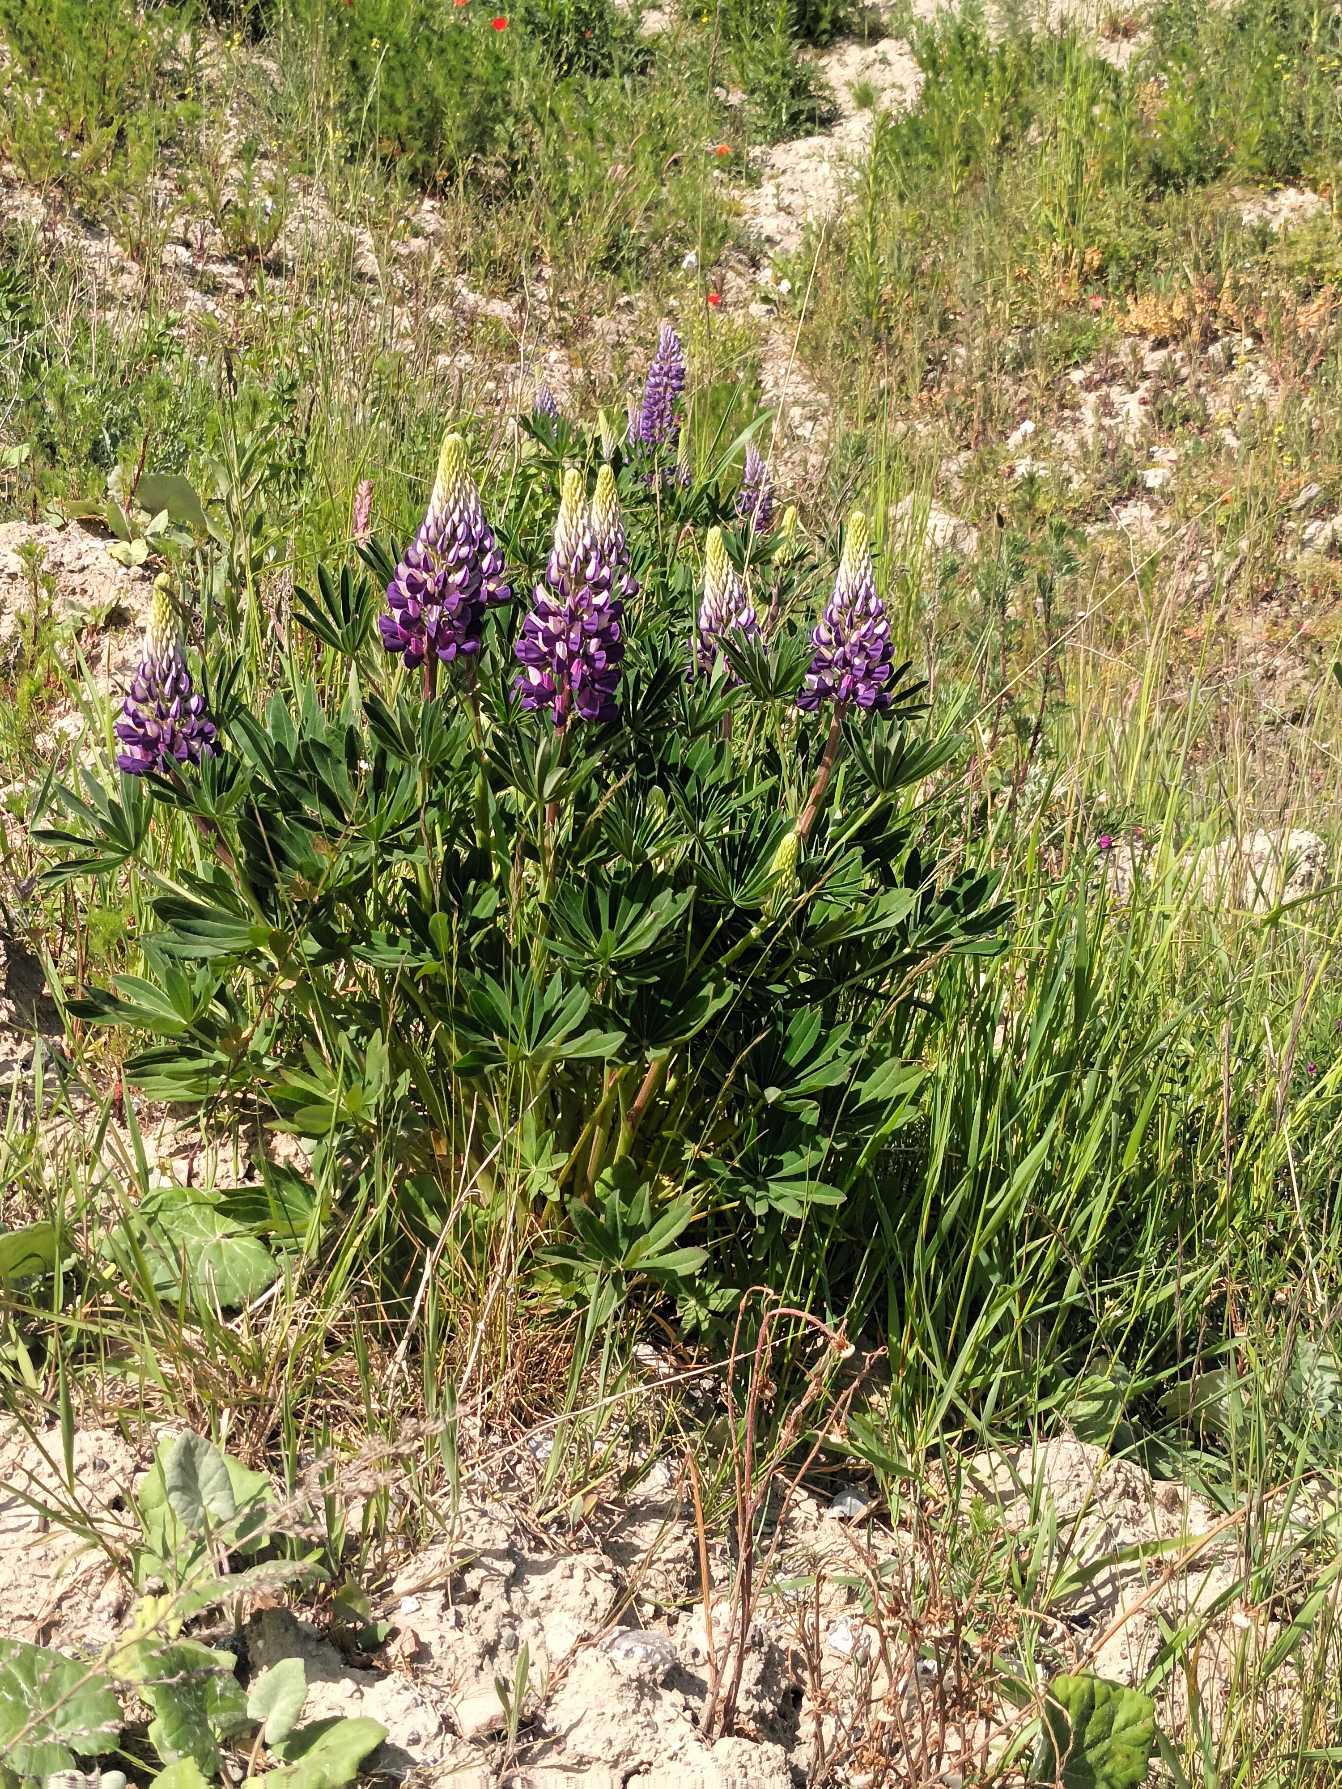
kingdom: Plantae
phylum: Tracheophyta
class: Magnoliopsida
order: Fabales
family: Fabaceae
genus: Lupinus
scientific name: Lupinus polyphyllus
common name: Mangebladet lupin
